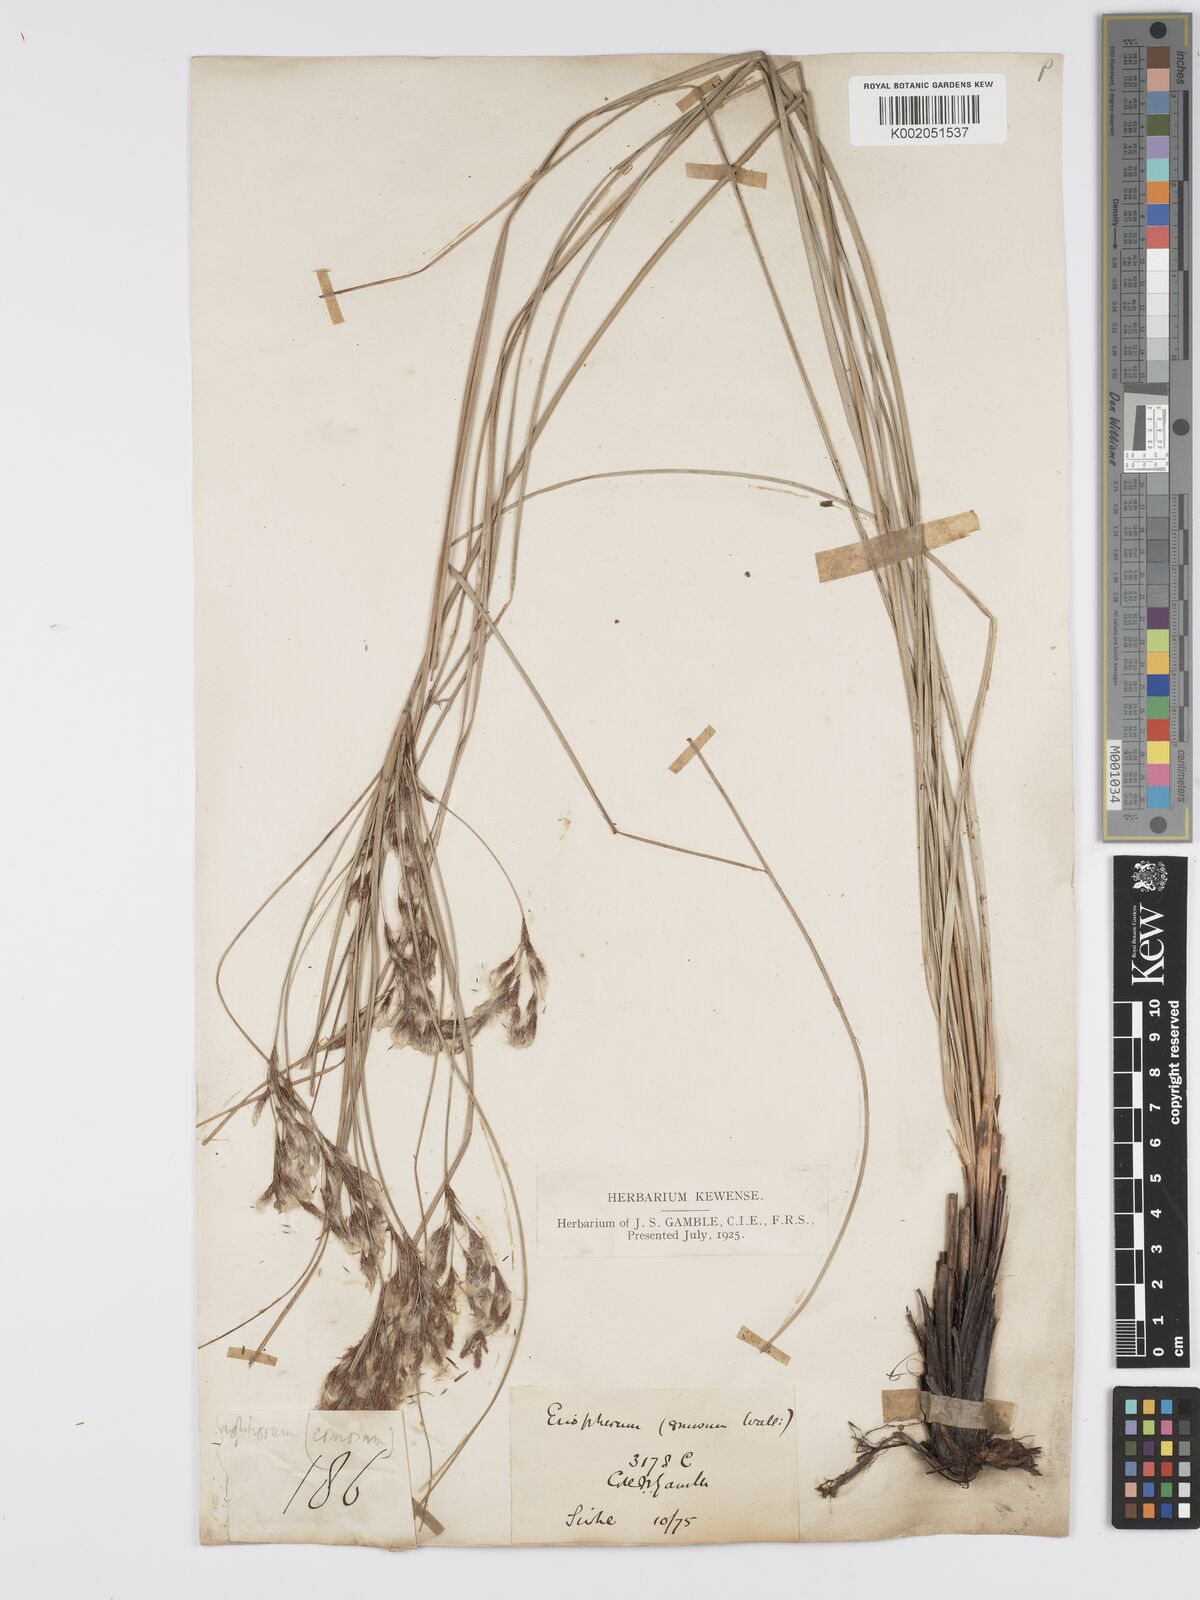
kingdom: Plantae
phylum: Tracheophyta
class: Liliopsida
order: Poales
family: Cyperaceae
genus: Erioscirpus
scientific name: Erioscirpus comosus
